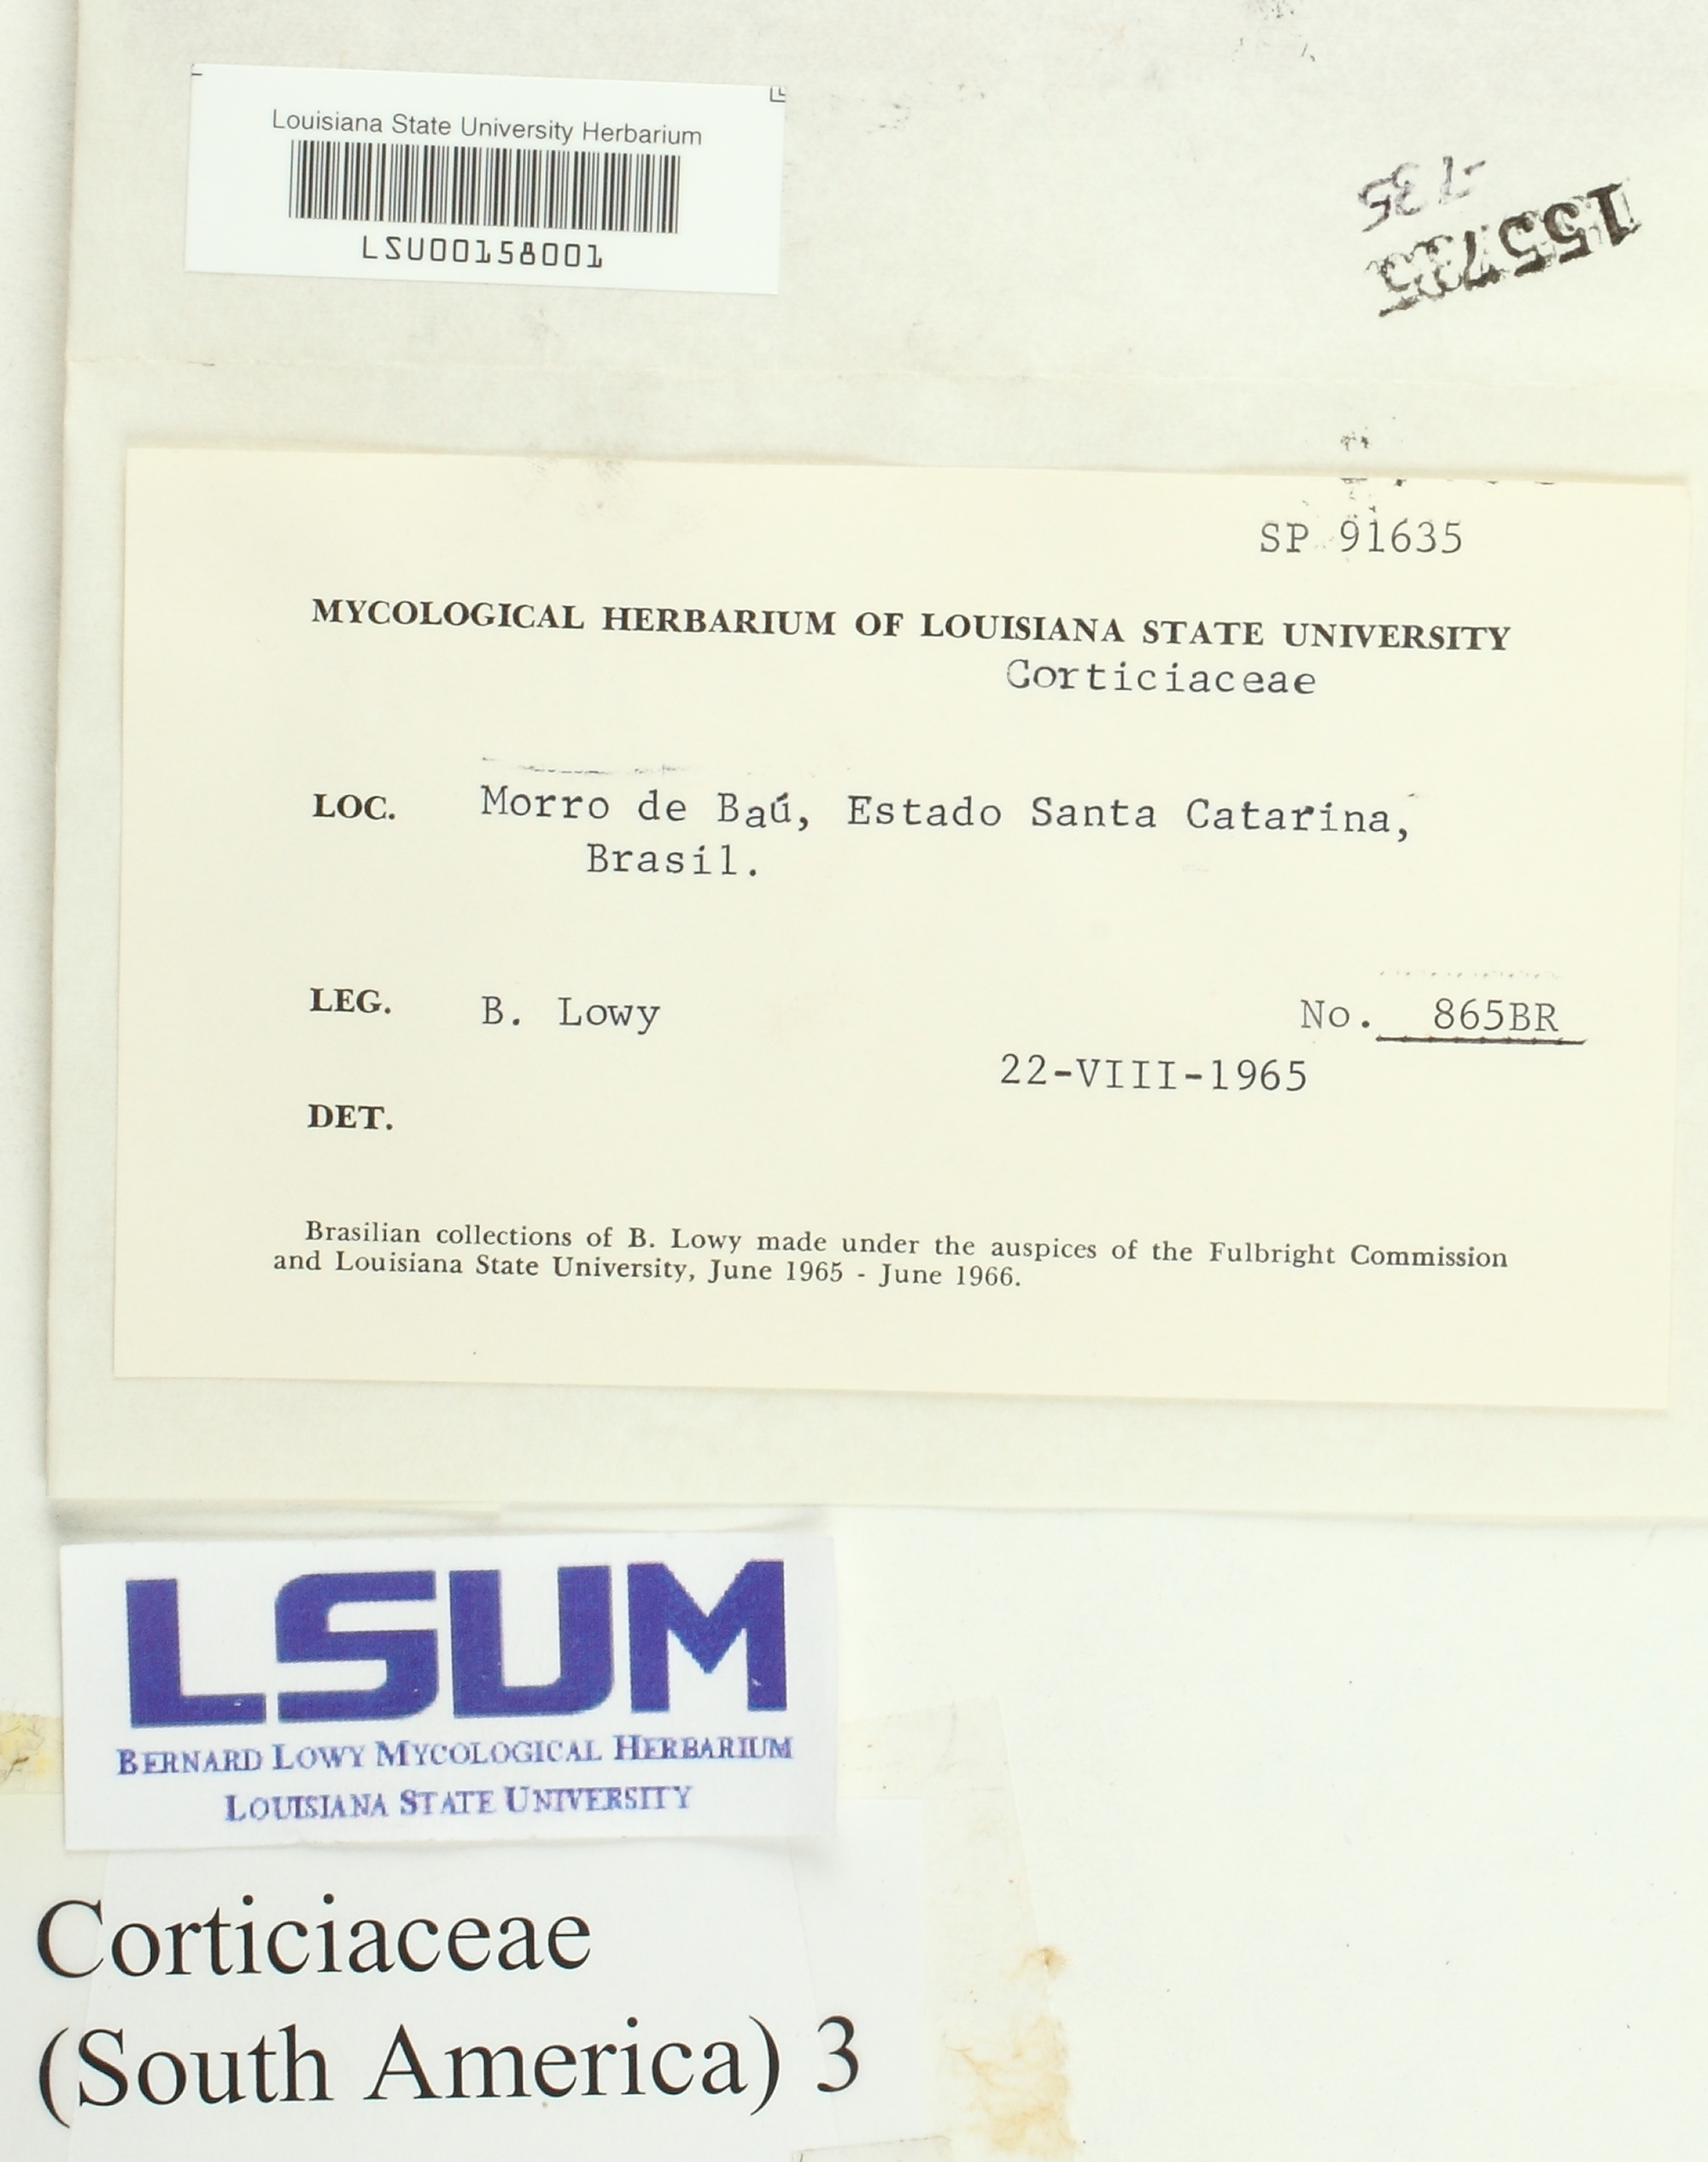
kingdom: Fungi
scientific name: Fungi
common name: Fungi
